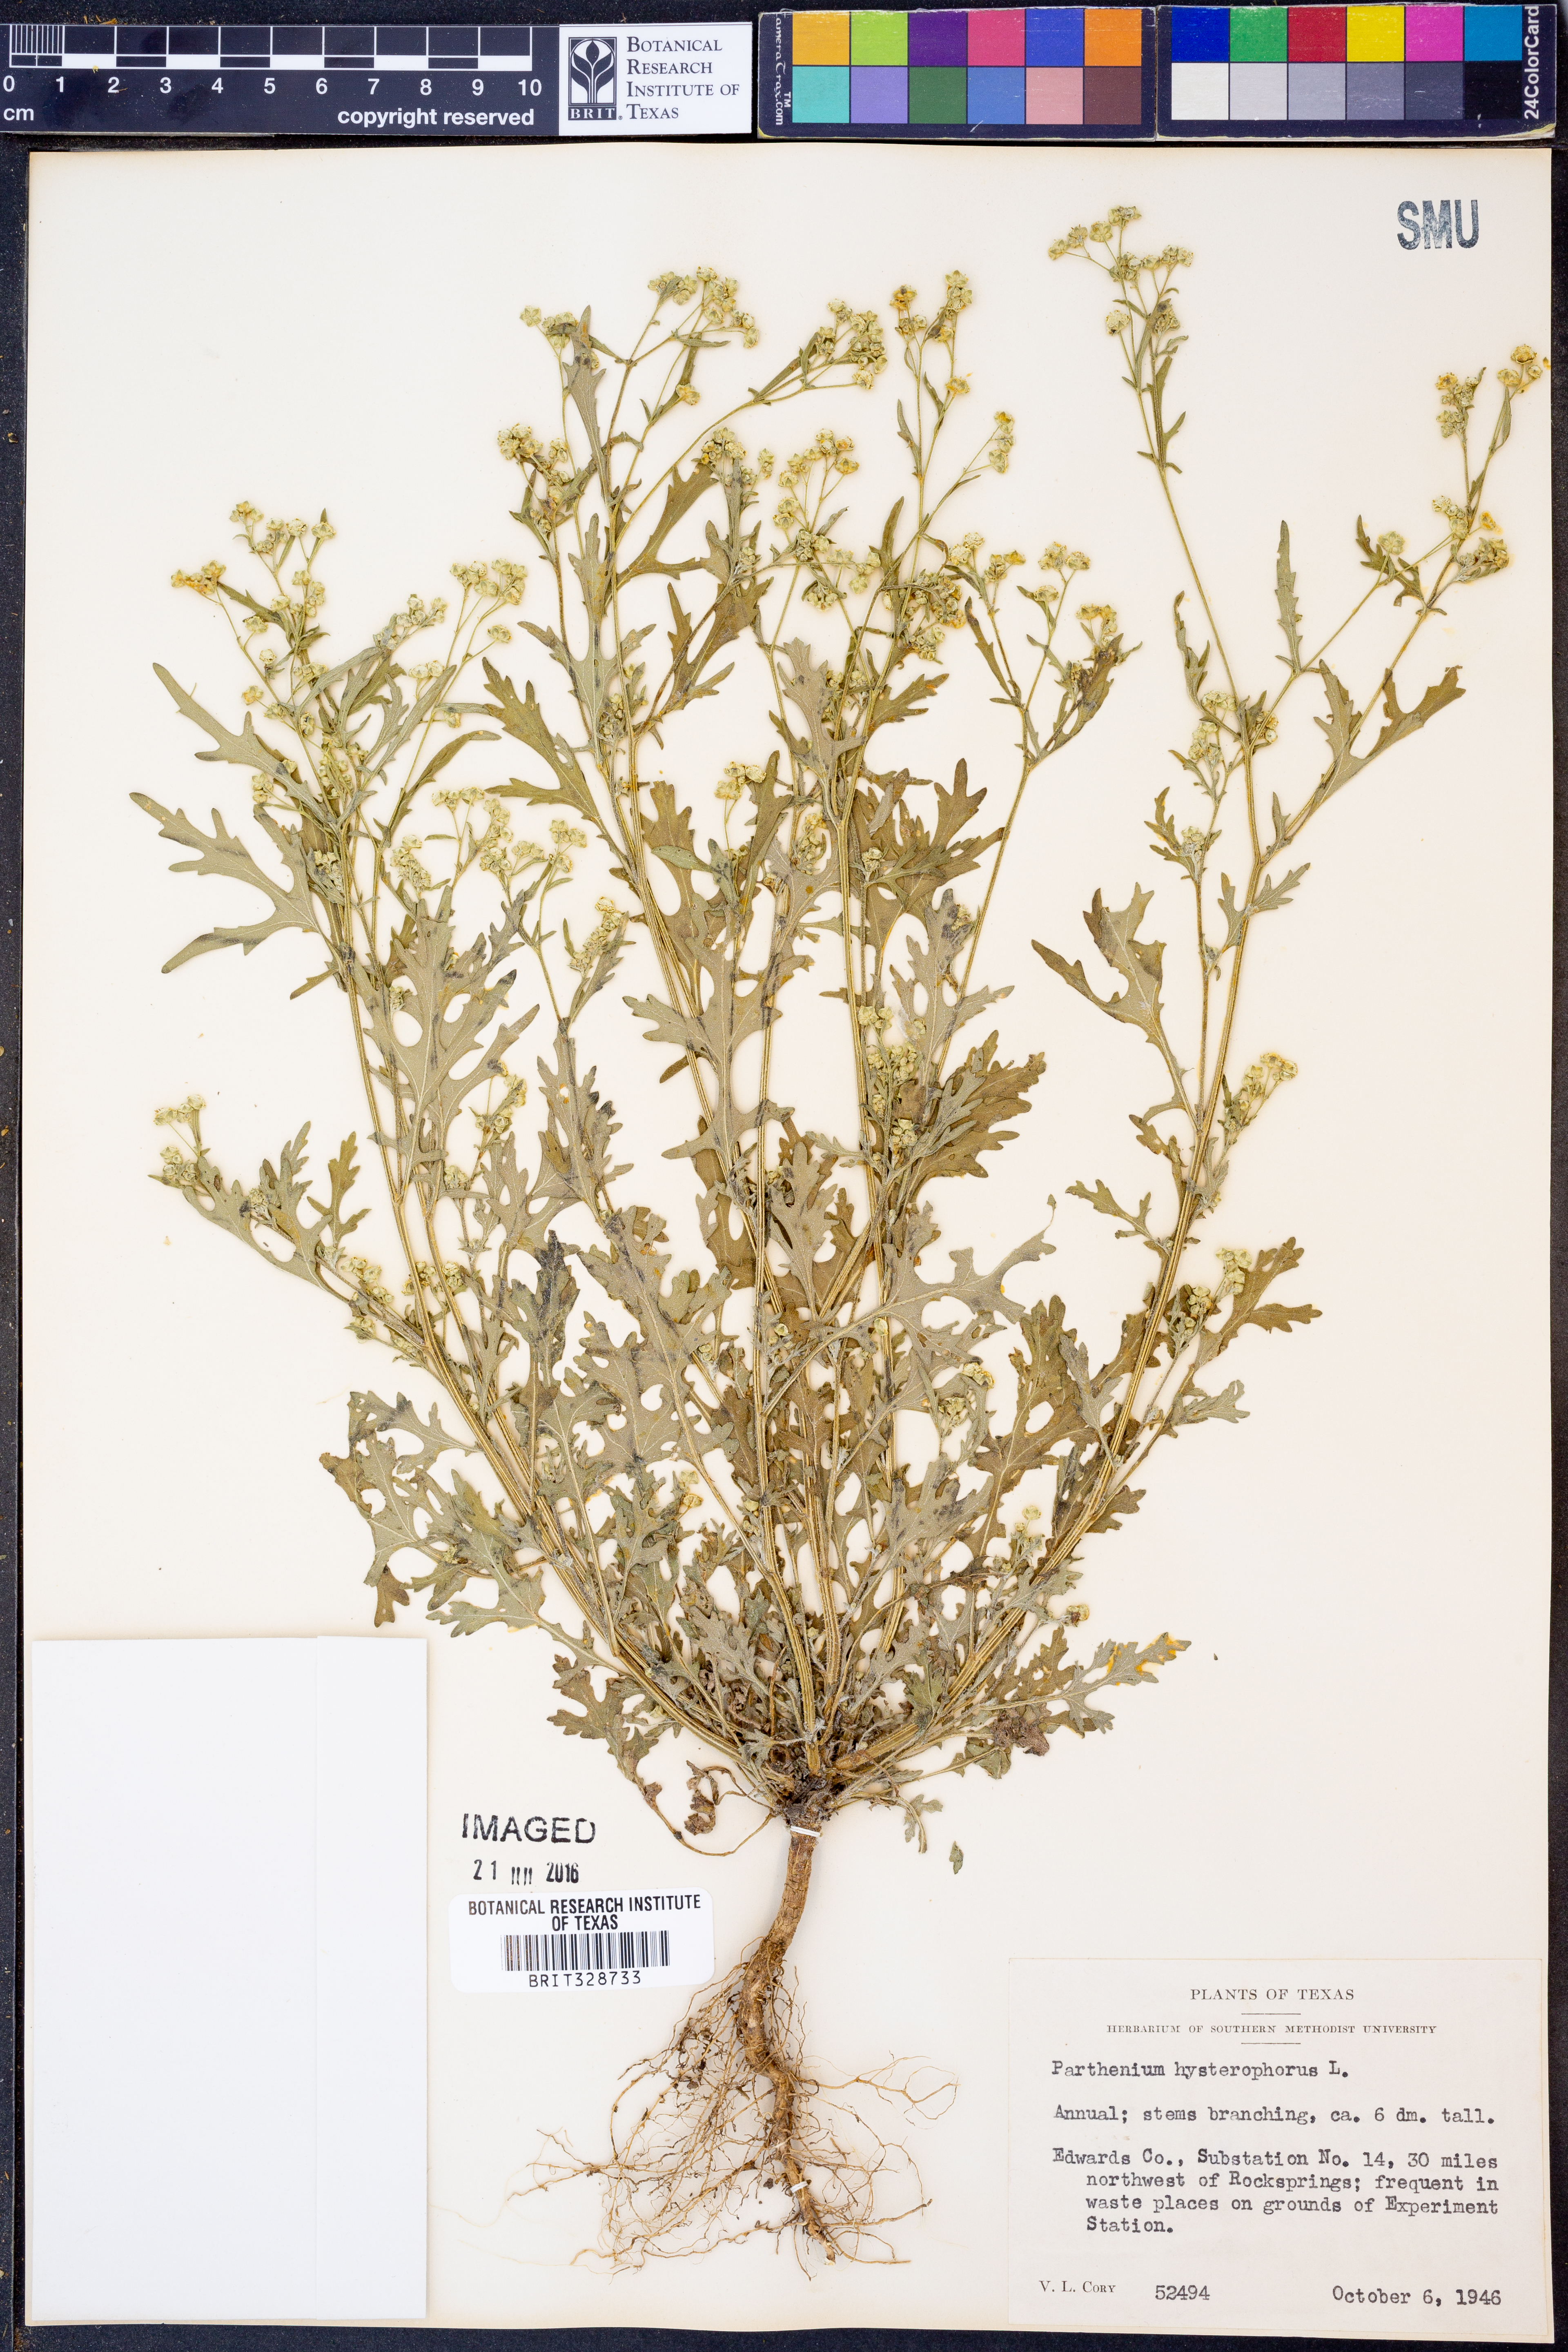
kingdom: Plantae
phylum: Tracheophyta
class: Magnoliopsida
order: Asterales
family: Asteraceae
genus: Parthenium
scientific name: Parthenium hysterophorus
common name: Santa maria feverfew
